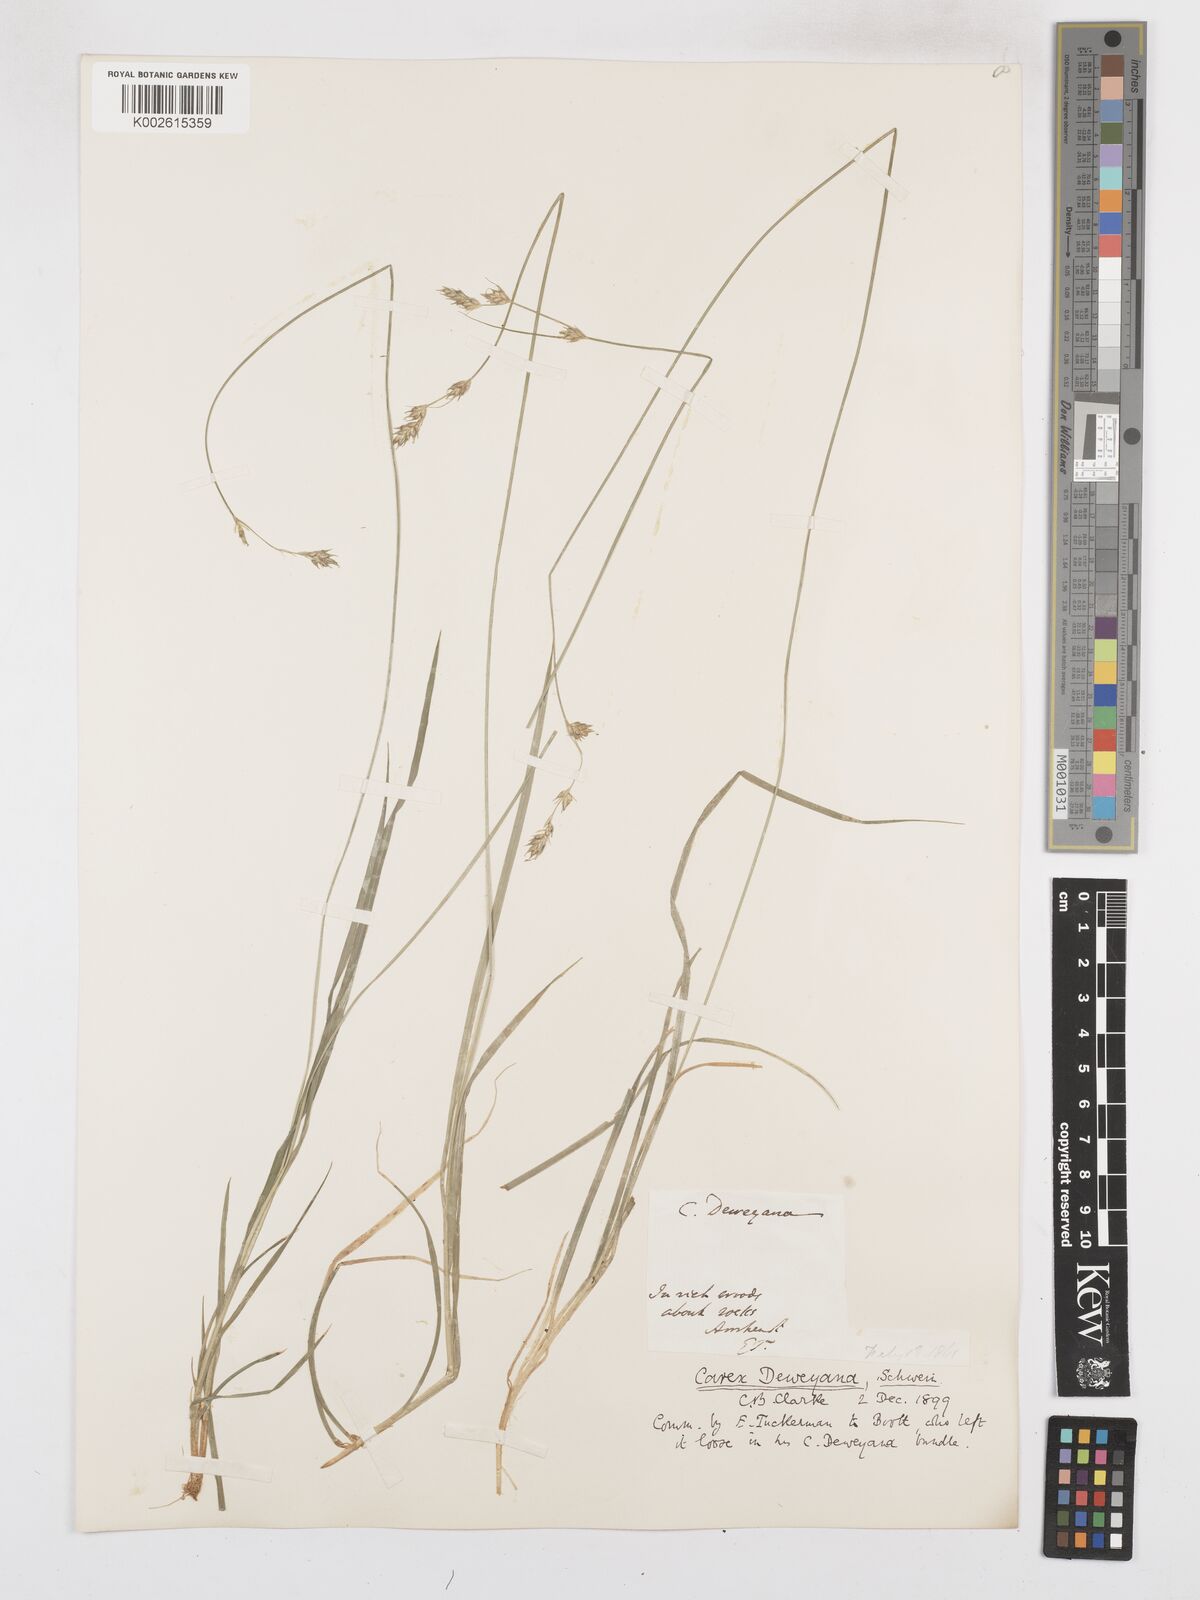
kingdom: Plantae
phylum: Tracheophyta
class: Liliopsida
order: Poales
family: Cyperaceae
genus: Carex
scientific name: Carex deweyana
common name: Dewey's sedge
